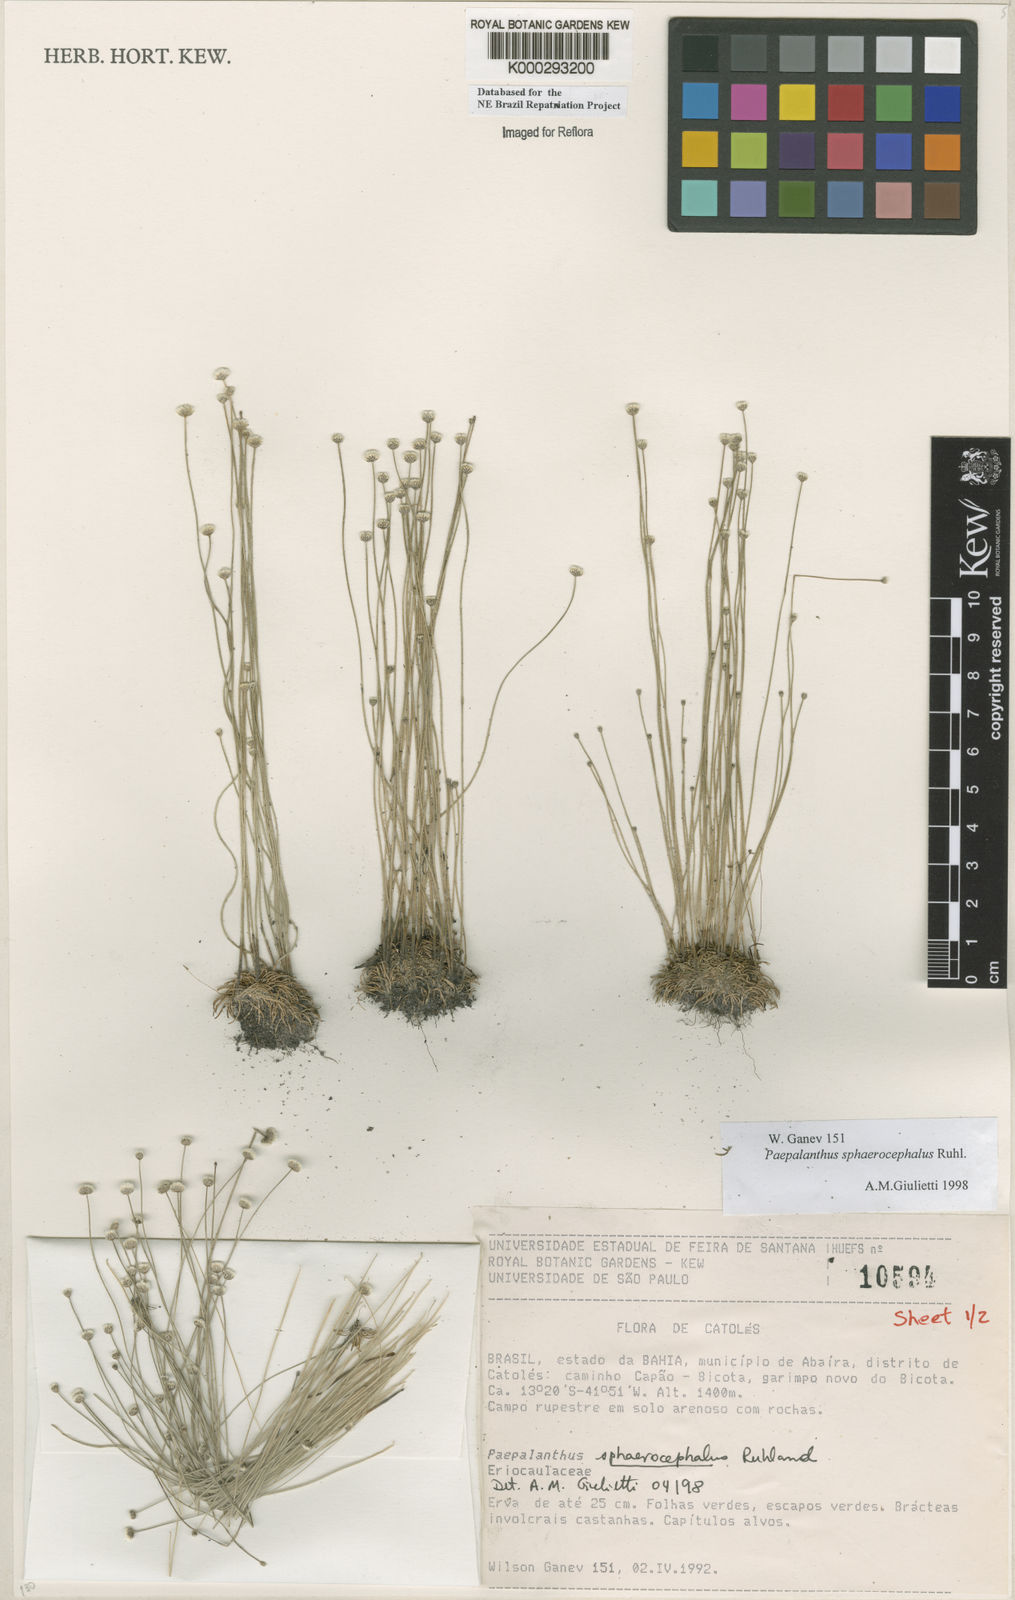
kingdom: Plantae
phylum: Tracheophyta
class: Liliopsida
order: Poales
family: Eriocaulaceae
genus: Paepalanthus
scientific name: Paepalanthus sphaerocephalus
